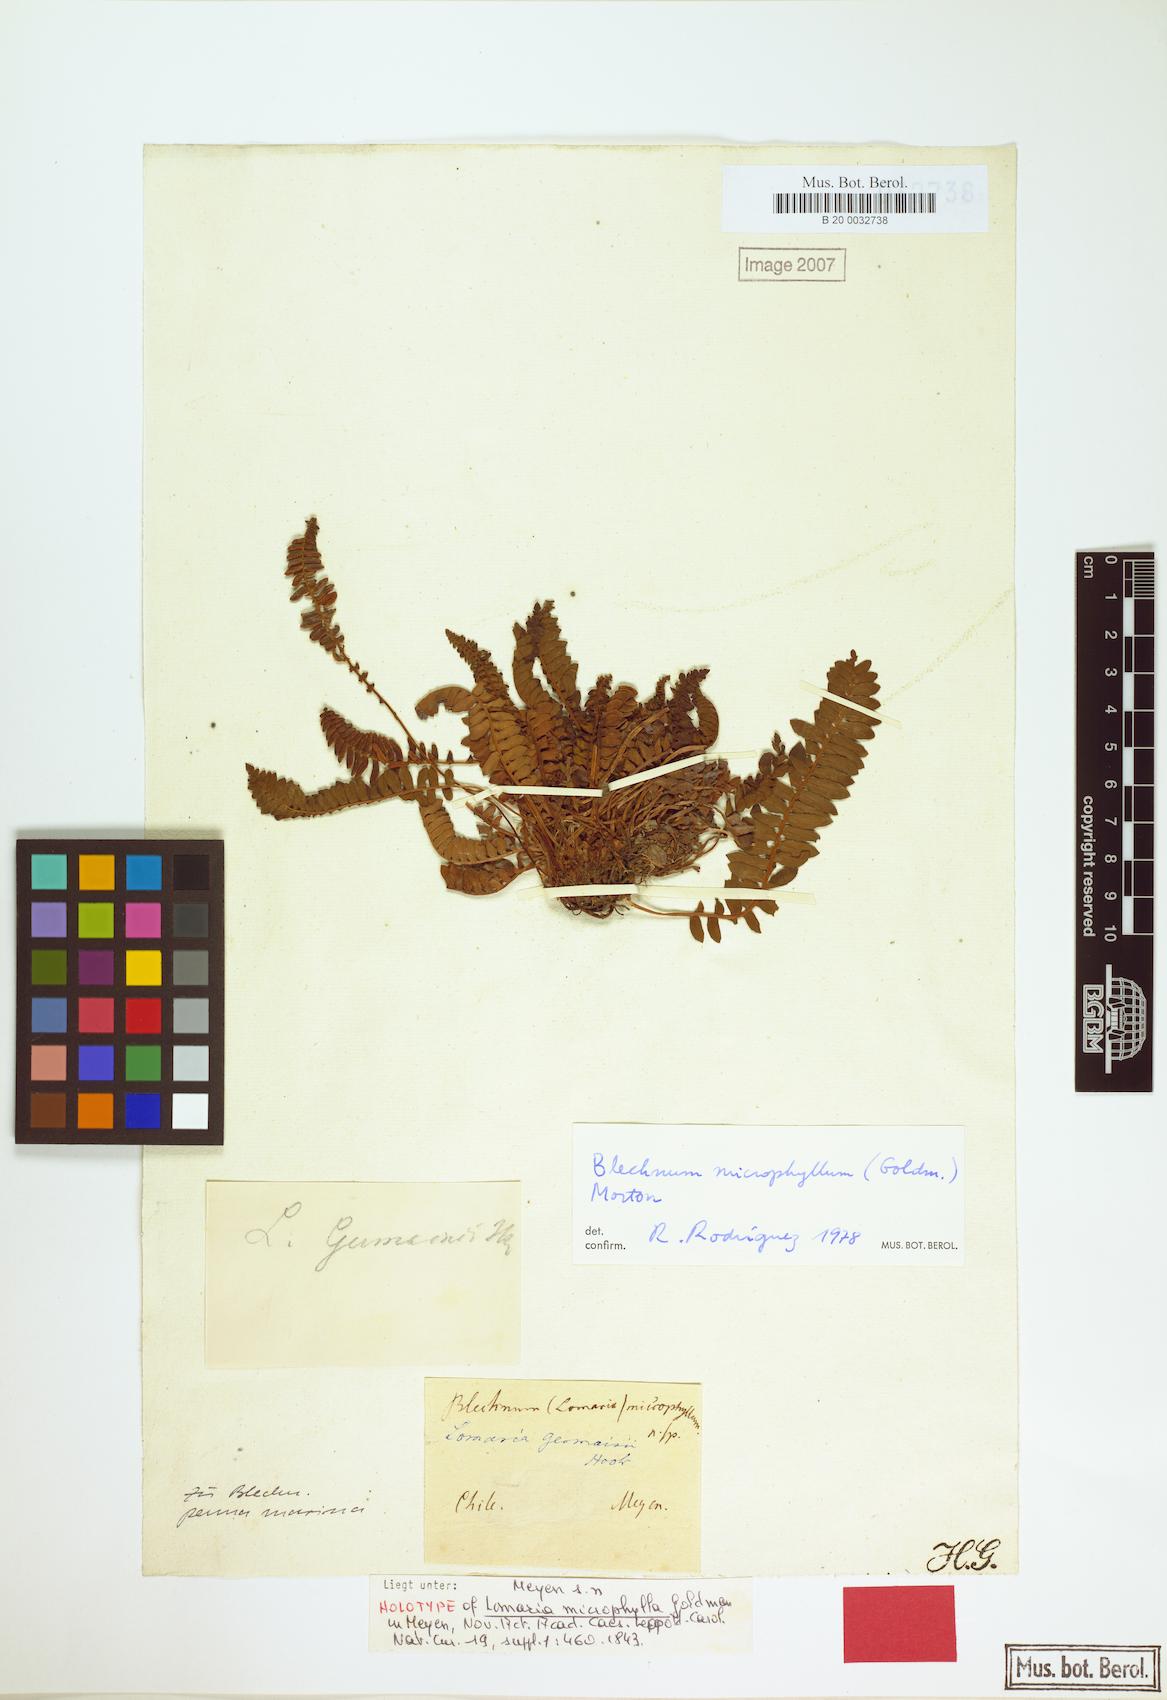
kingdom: Plantae
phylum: Tracheophyta
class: Polypodiopsida
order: Polypodiales
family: Blechnaceae
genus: Austroblechnum
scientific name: Austroblechnum microphyllum
